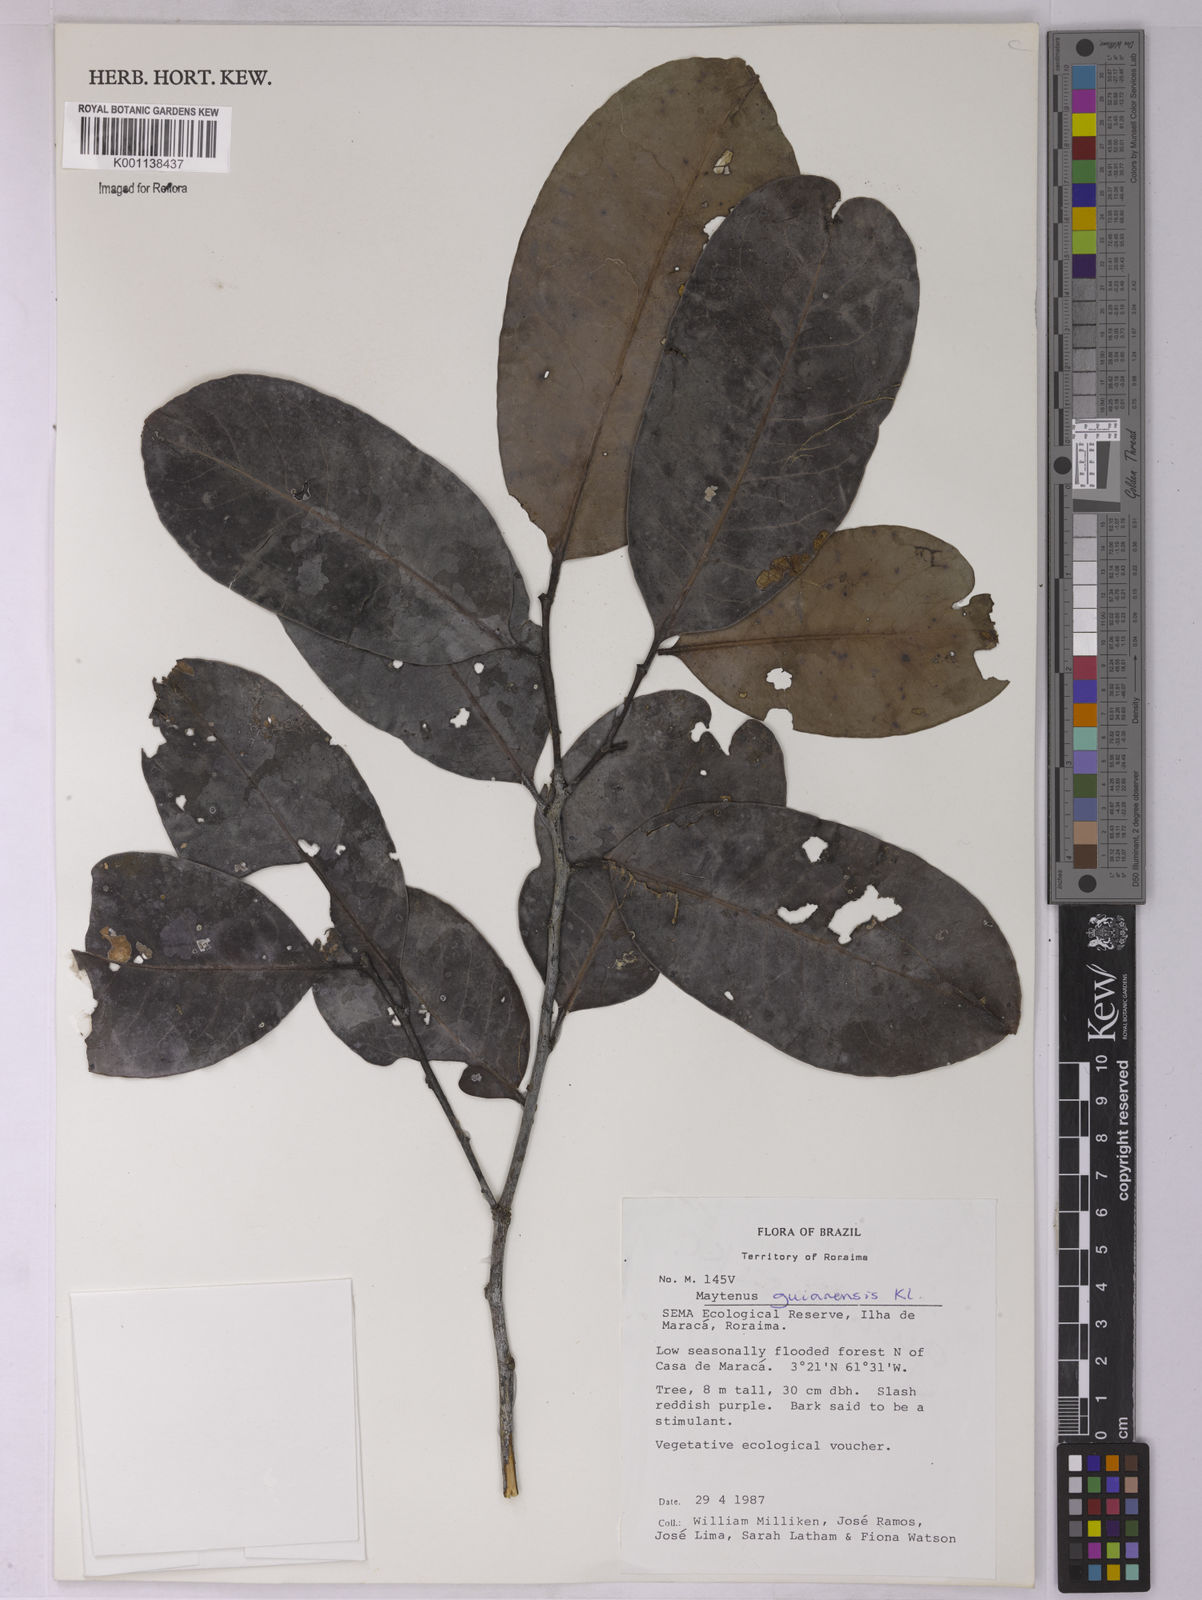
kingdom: Plantae
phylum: Tracheophyta
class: Magnoliopsida
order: Celastrales
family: Celastraceae
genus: Monteverdia
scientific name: Monteverdia guyanensis
